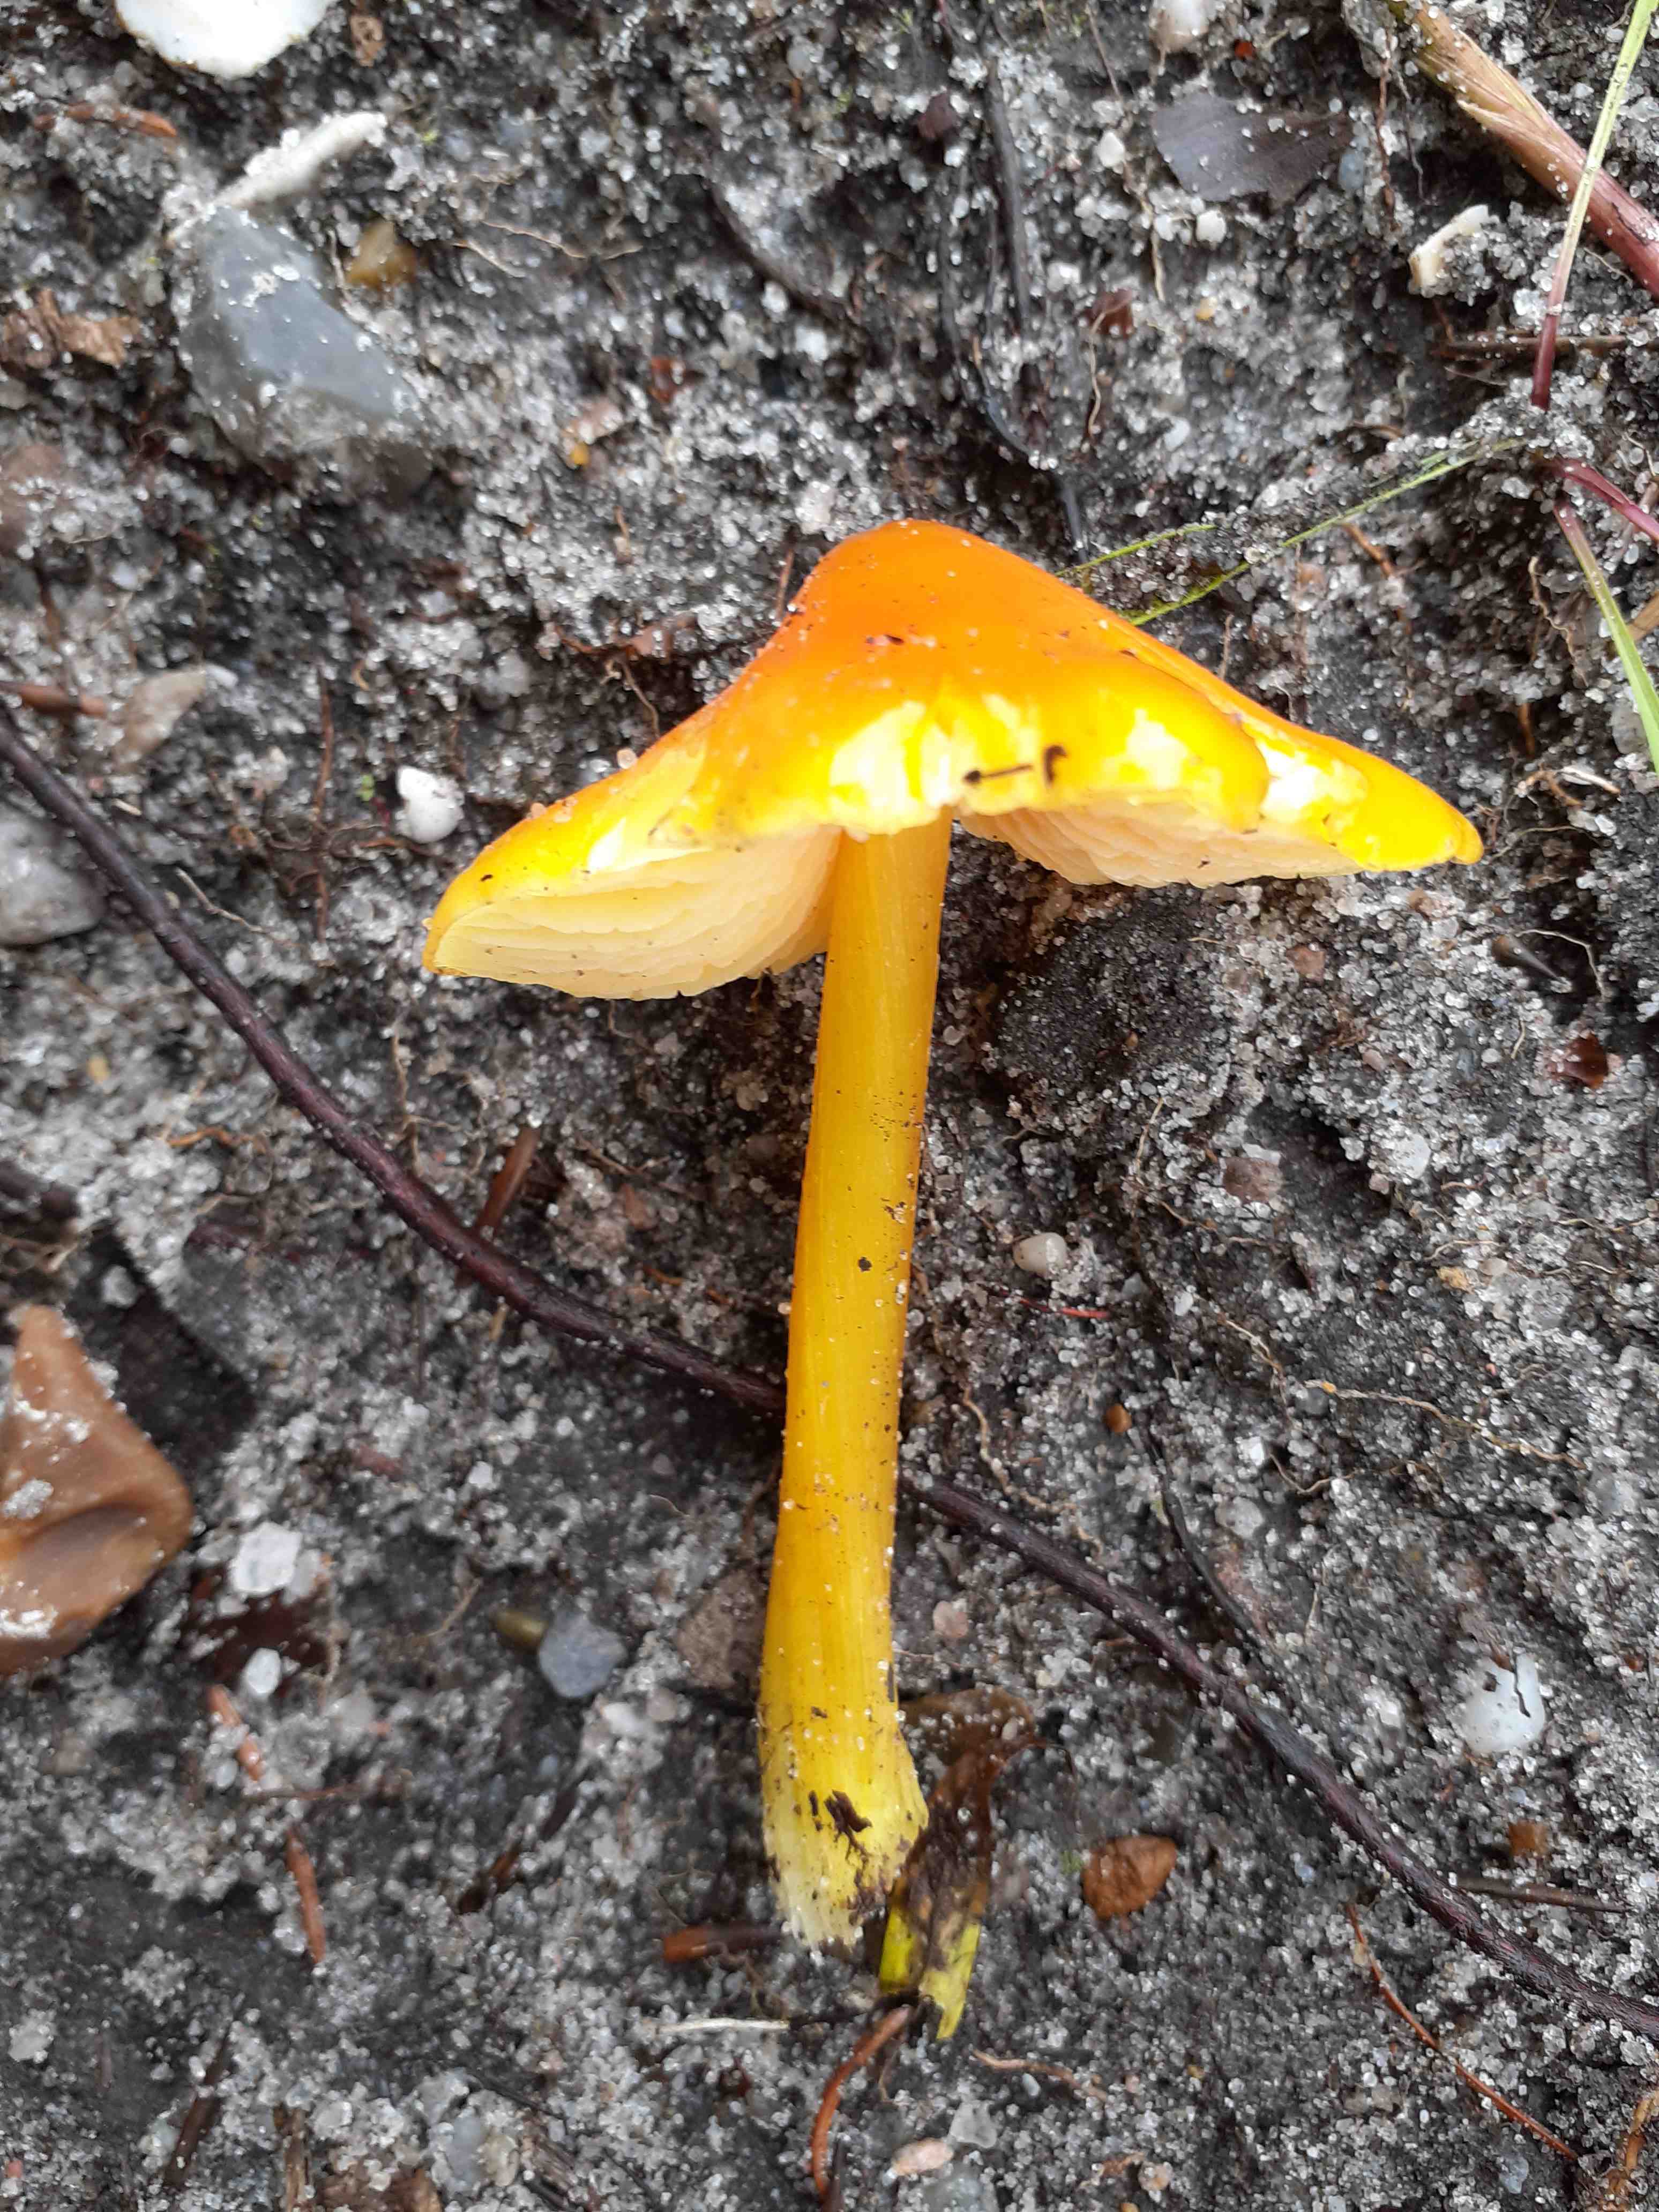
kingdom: Fungi
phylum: Basidiomycota
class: Agaricomycetes
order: Agaricales
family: Hygrophoraceae
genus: Hygrocybe
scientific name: Hygrocybe acutoconica
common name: spidspuklet vokshat
